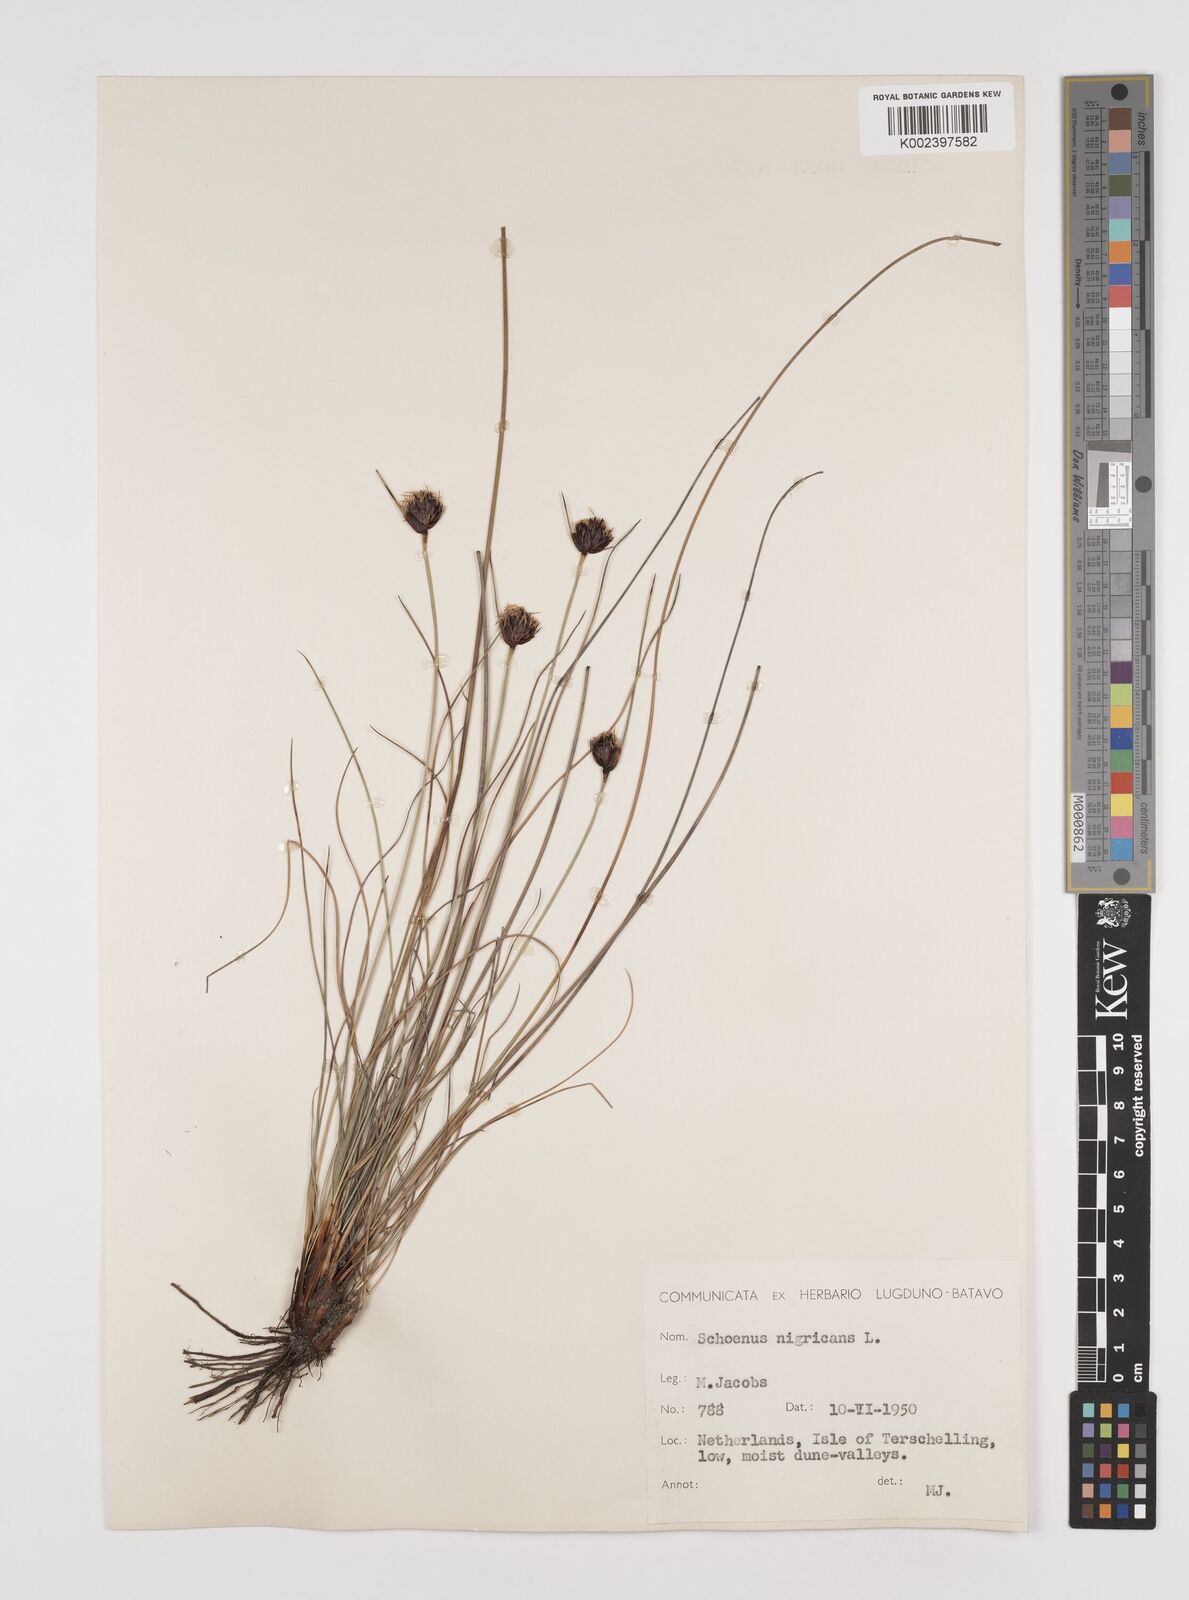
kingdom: Plantae
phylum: Tracheophyta
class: Liliopsida
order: Poales
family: Cyperaceae
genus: Schoenus
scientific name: Schoenus nigricans
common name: Black bog-rush
